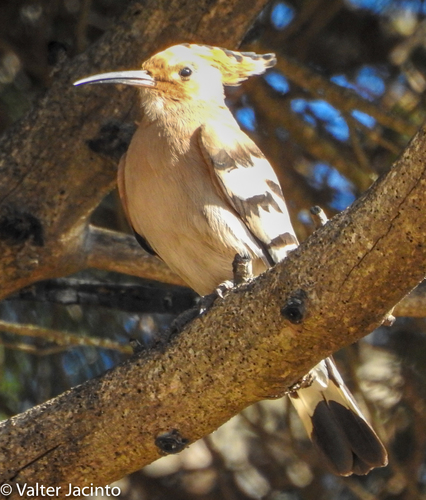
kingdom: Animalia
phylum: Chordata
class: Aves
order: Bucerotiformes
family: Upupidae
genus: Upupa
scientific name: Upupa epops
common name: Eurasian hoopoe
